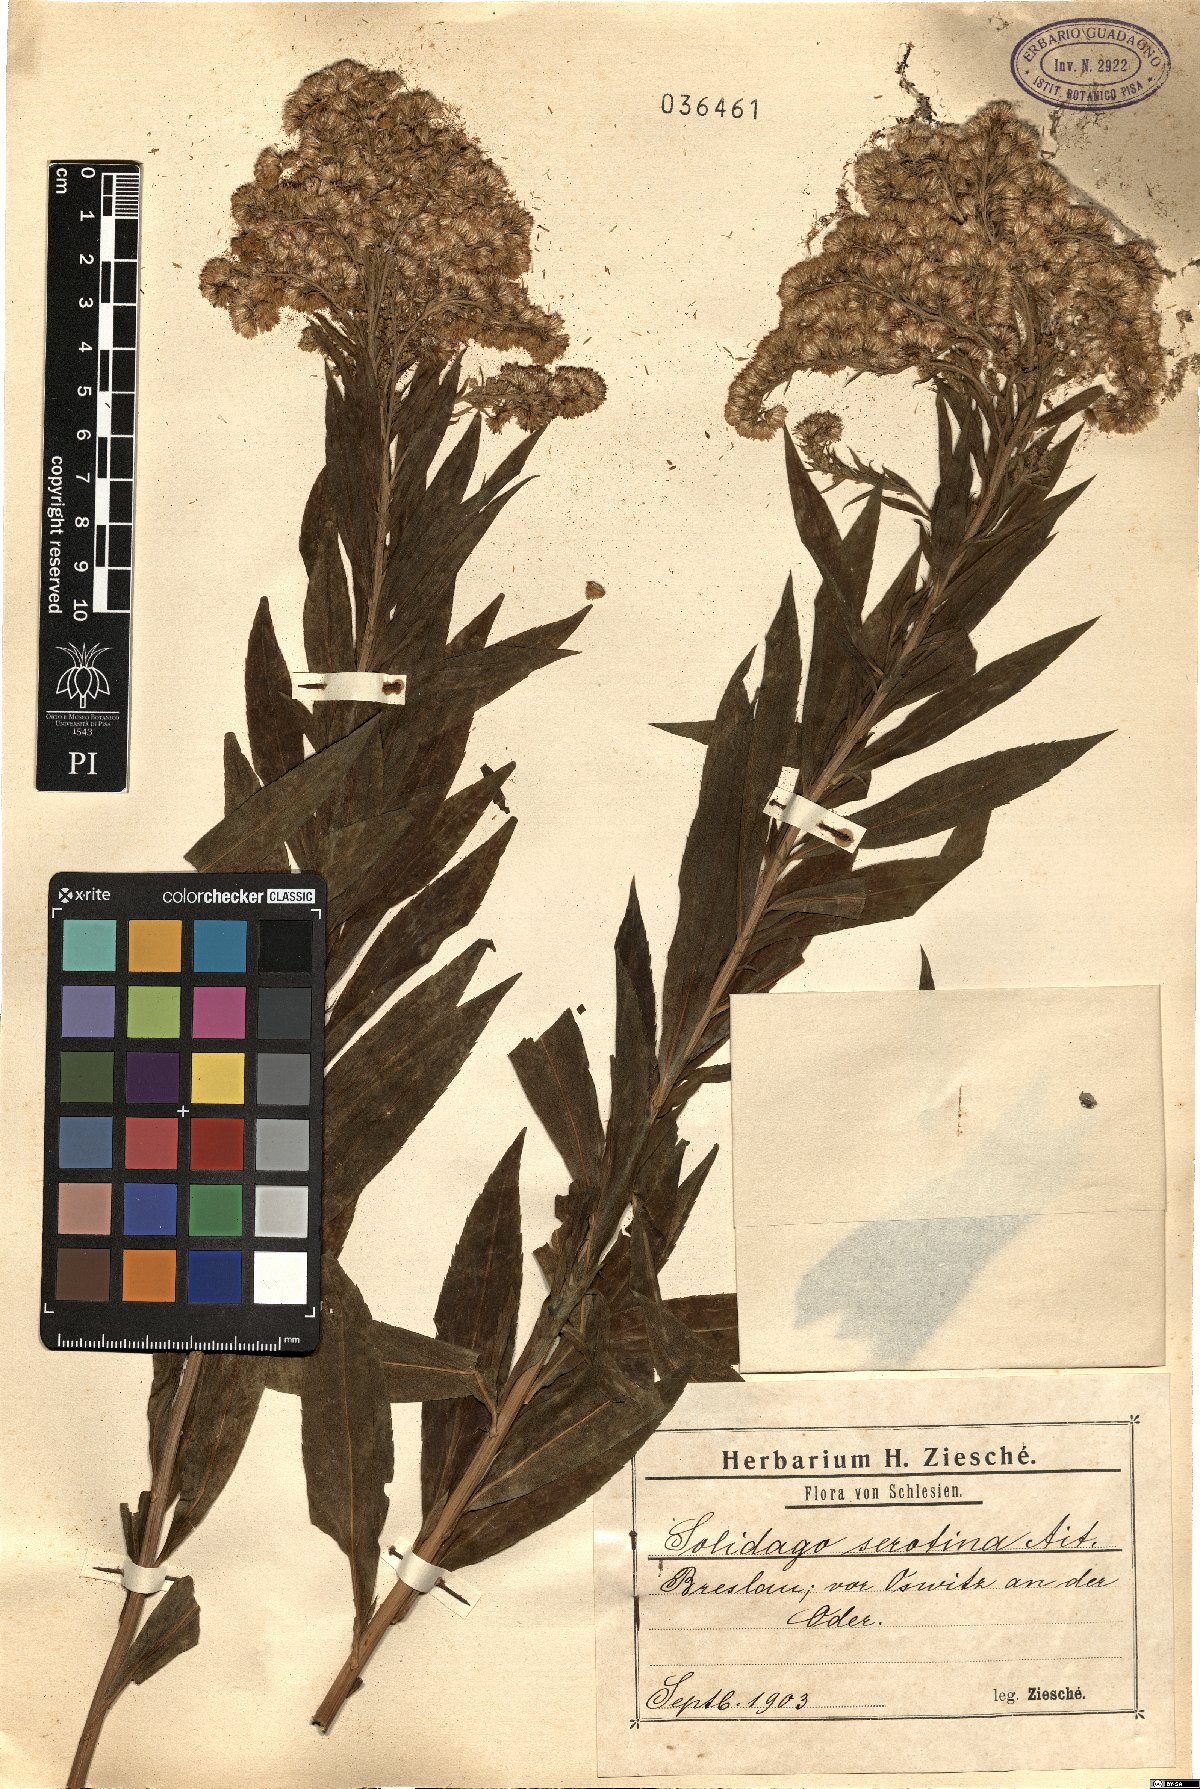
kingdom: Plantae
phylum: Tracheophyta
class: Magnoliopsida
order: Asterales
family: Asteraceae
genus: Solidago
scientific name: Solidago gigantea
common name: Giant goldenrod
